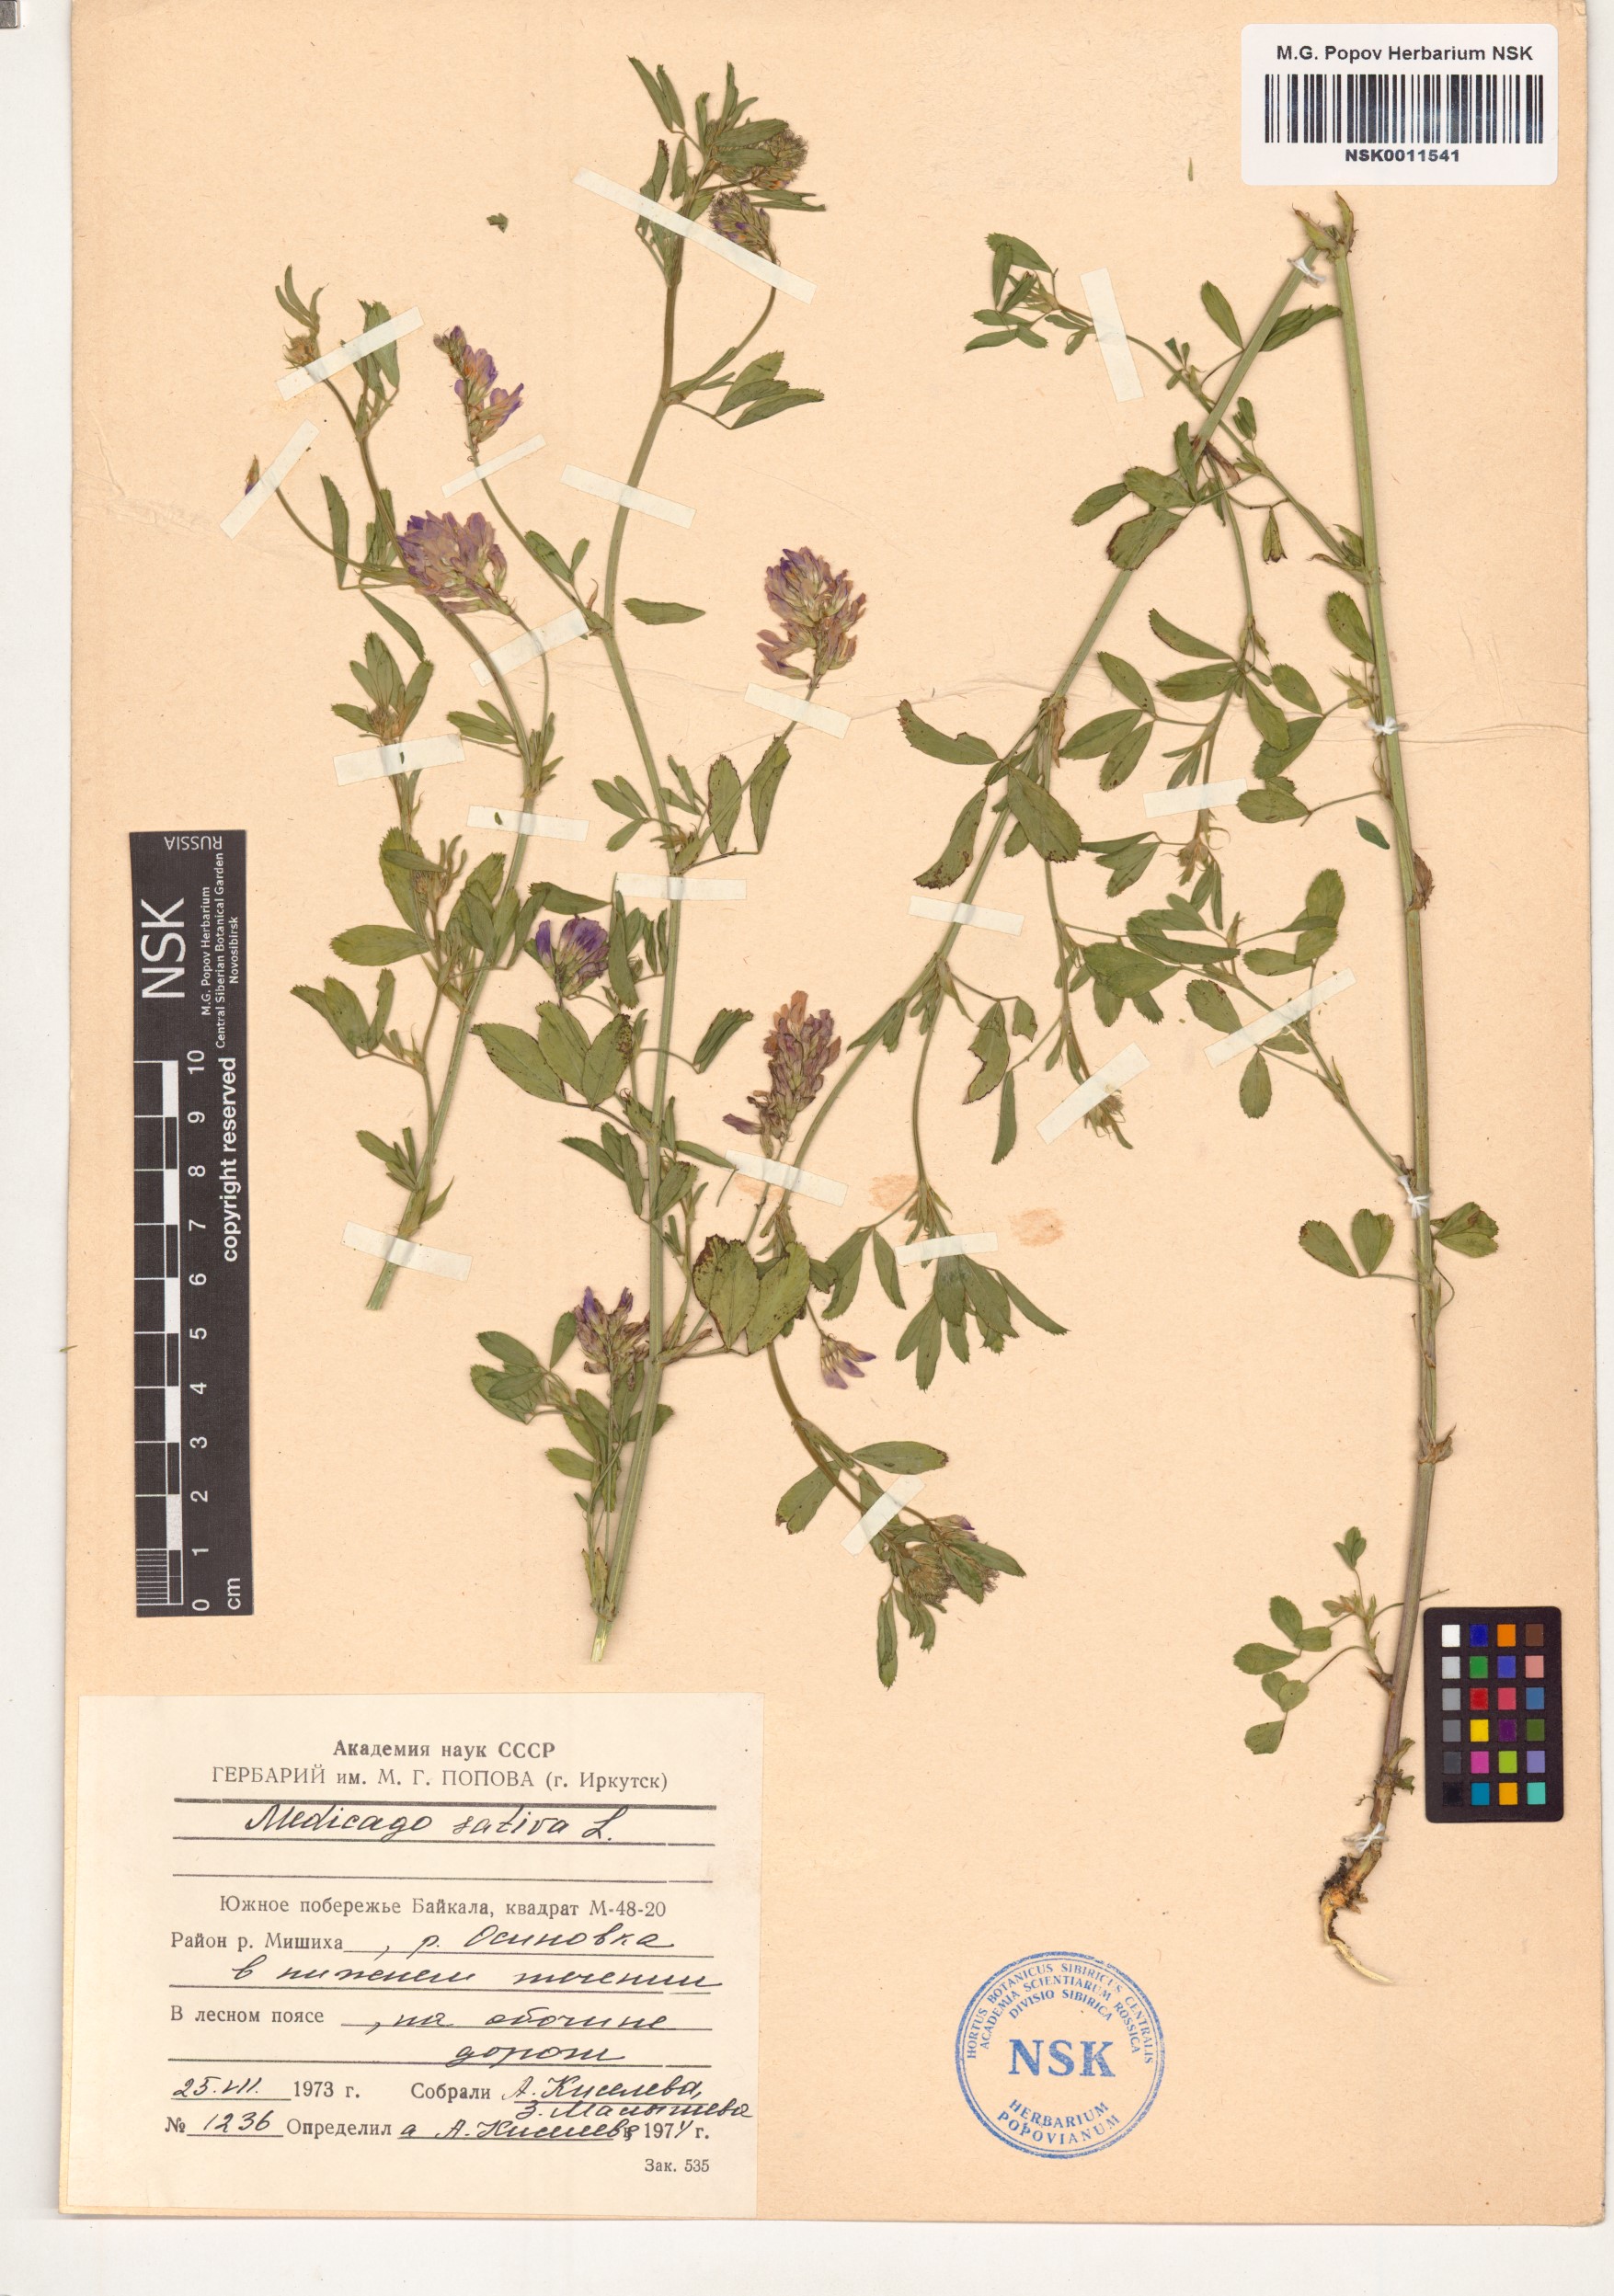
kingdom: Plantae
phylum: Tracheophyta
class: Magnoliopsida
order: Fabales
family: Fabaceae
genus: Medicago
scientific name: Medicago sativa
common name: Alfalfa
